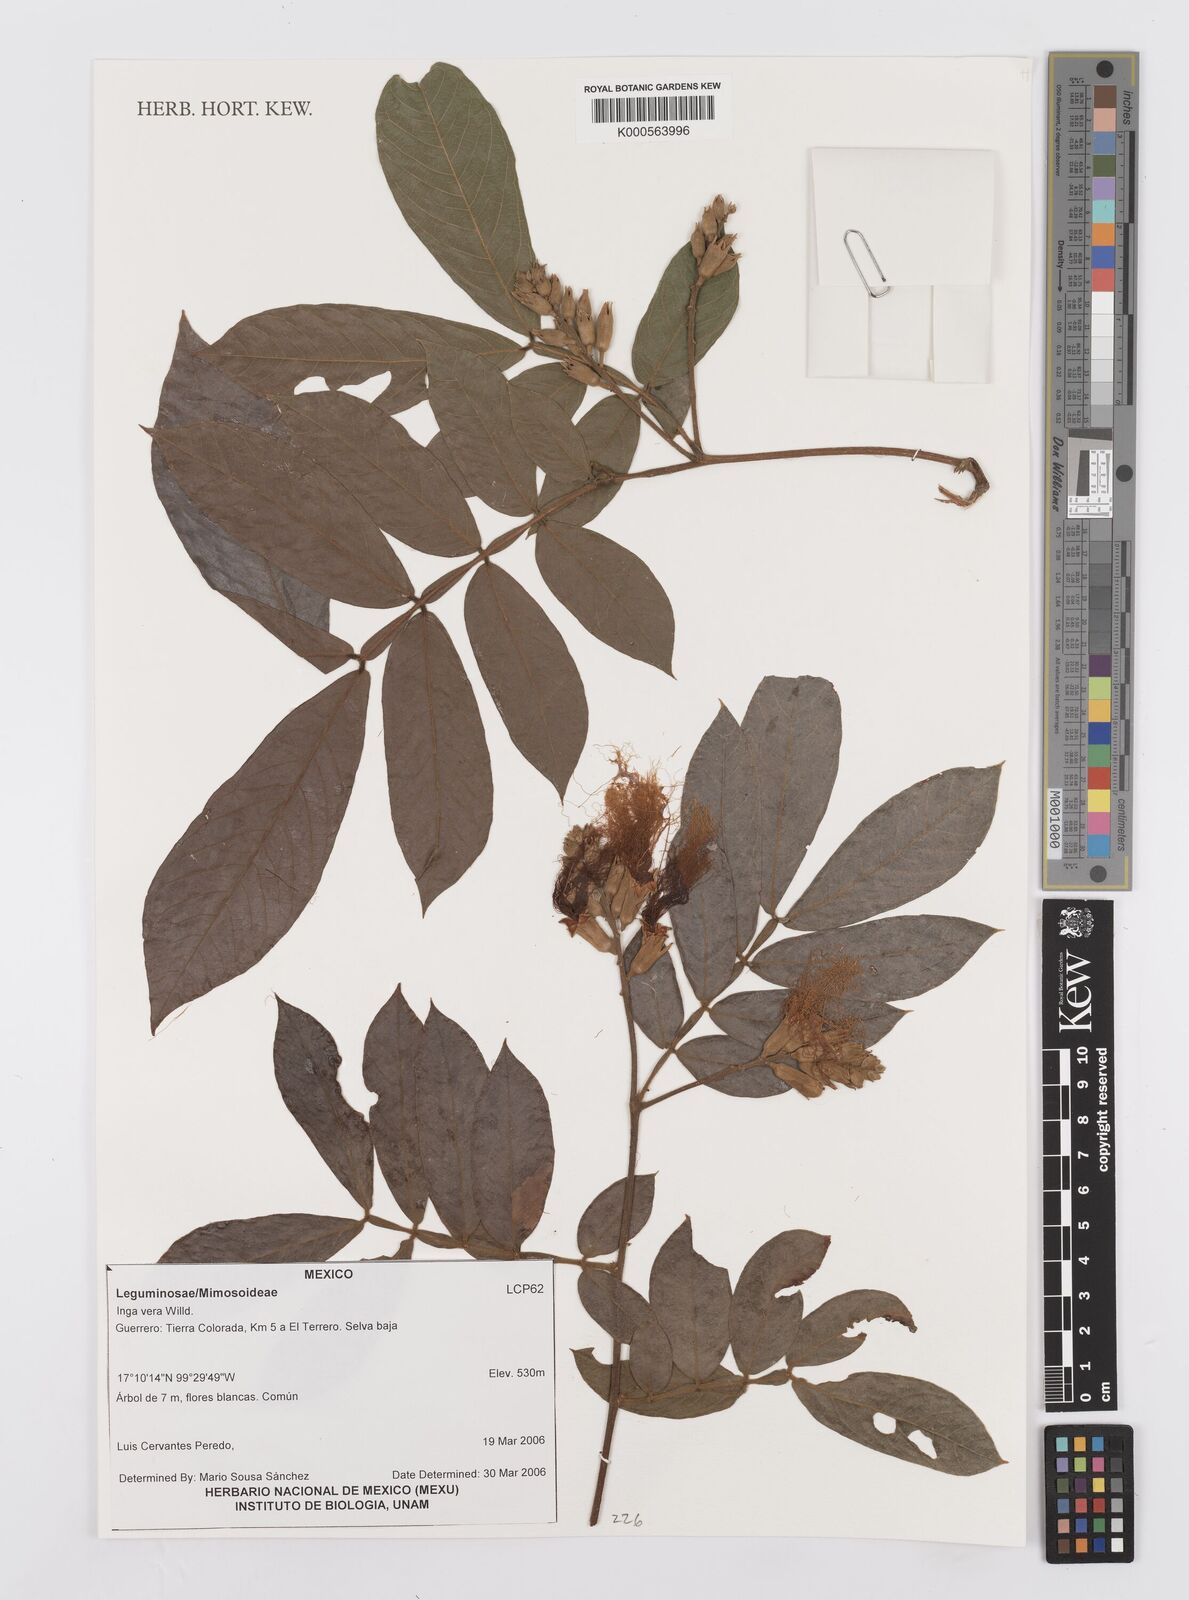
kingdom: Plantae
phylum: Tracheophyta
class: Magnoliopsida
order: Fabales
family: Fabaceae
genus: Inga
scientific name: Inga vera
